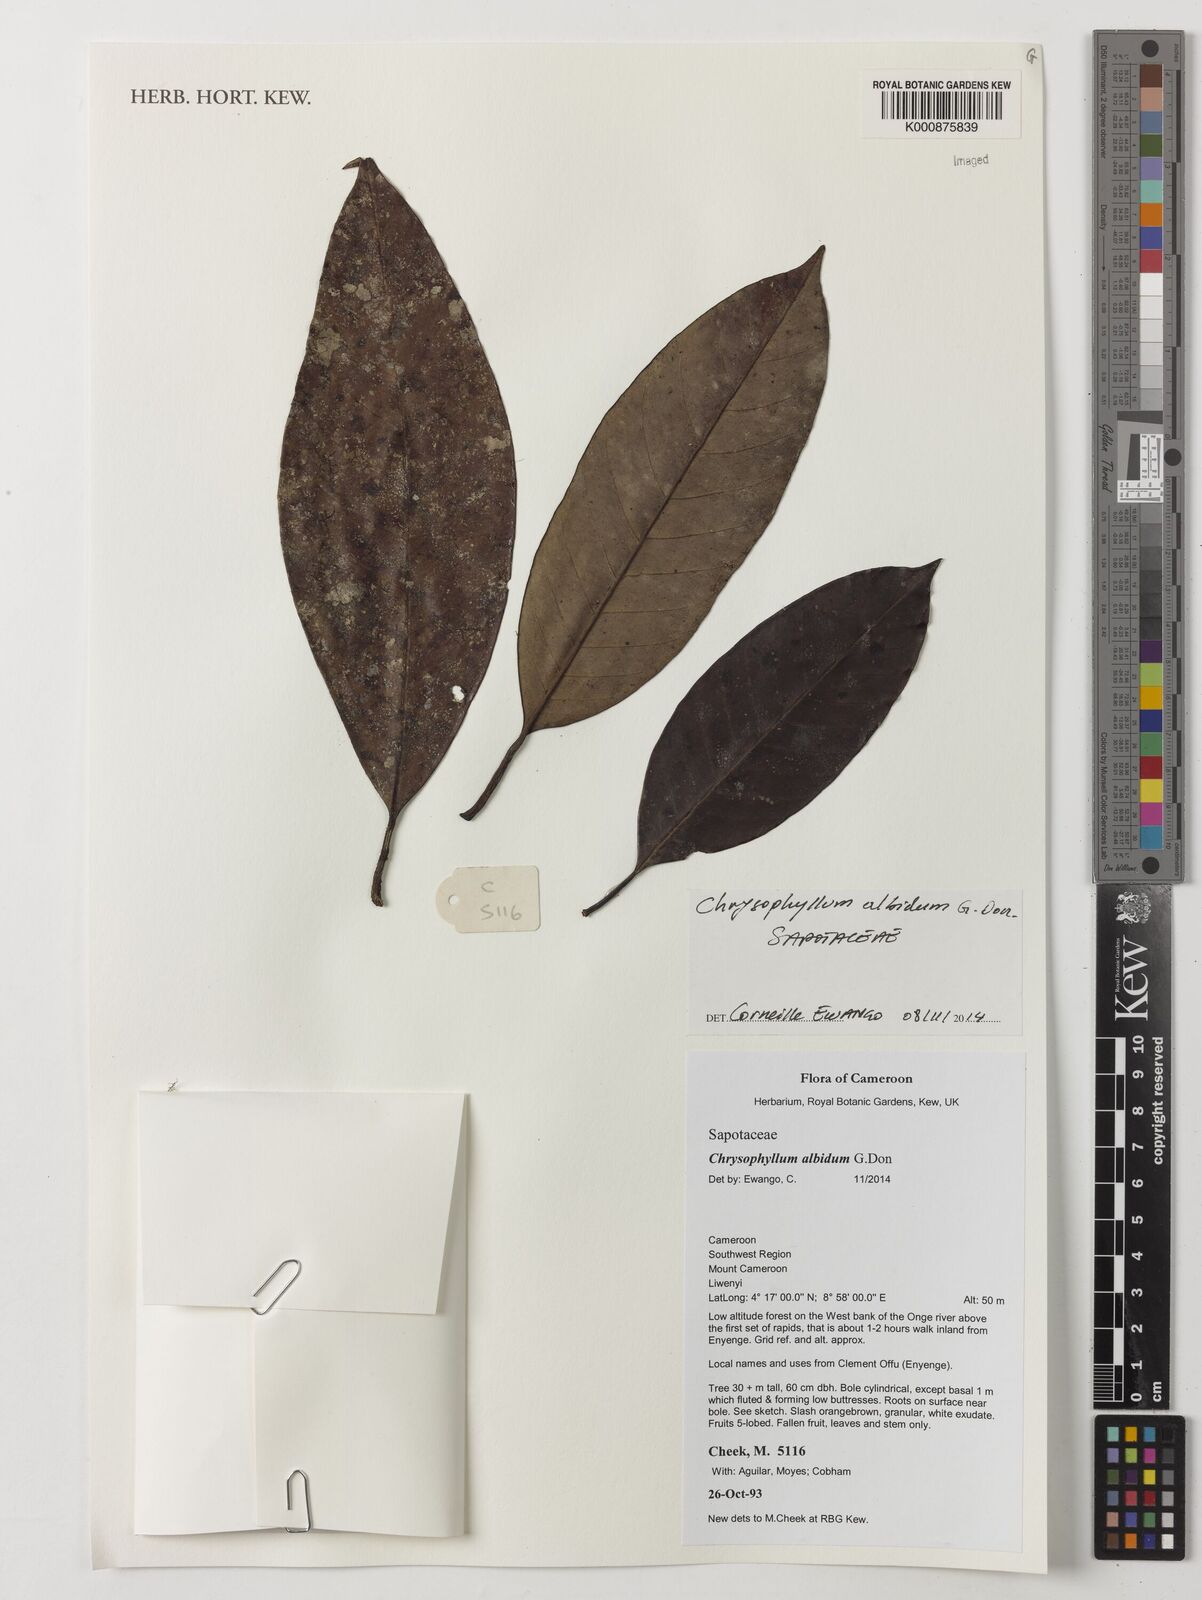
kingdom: Plantae
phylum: Tracheophyta
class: Magnoliopsida
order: Ericales
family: Sapotaceae
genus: Gambeya
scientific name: Gambeya albida
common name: White star apple
